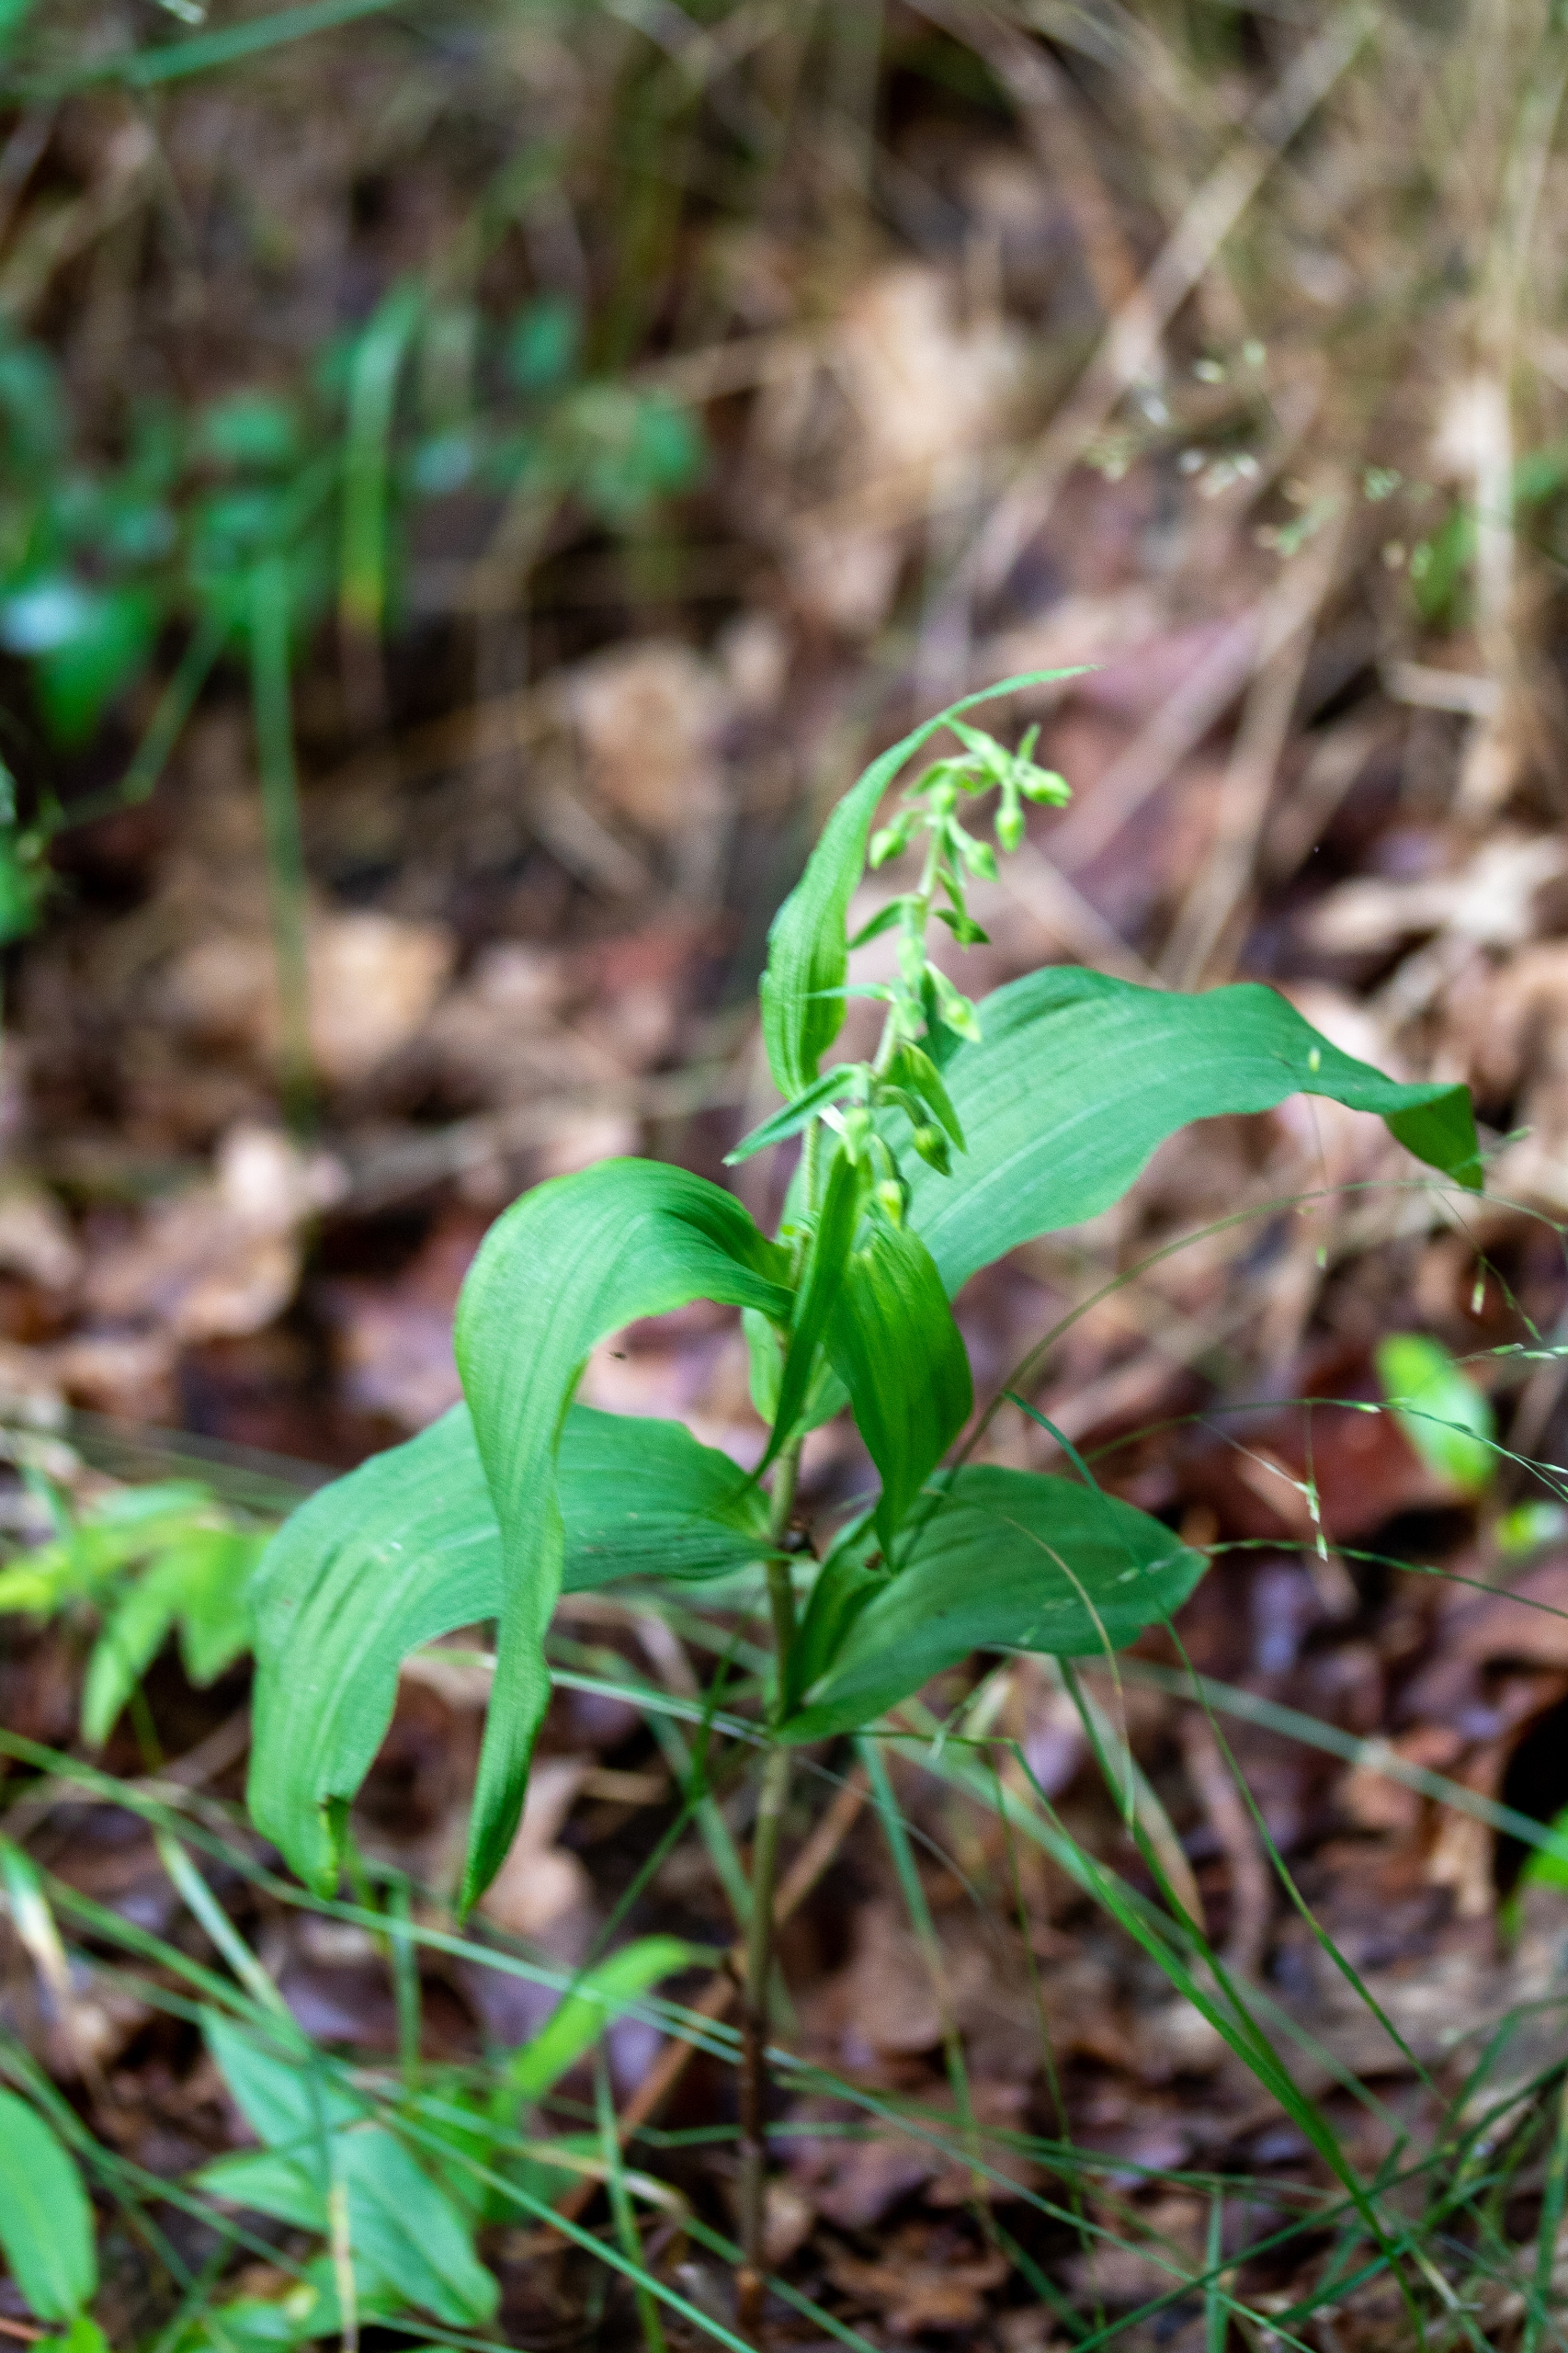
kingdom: Plantae
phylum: Tracheophyta
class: Liliopsida
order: Asparagales
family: Orchidaceae
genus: Epipactis
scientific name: Epipactis helleborine
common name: Skov-hullæbe
